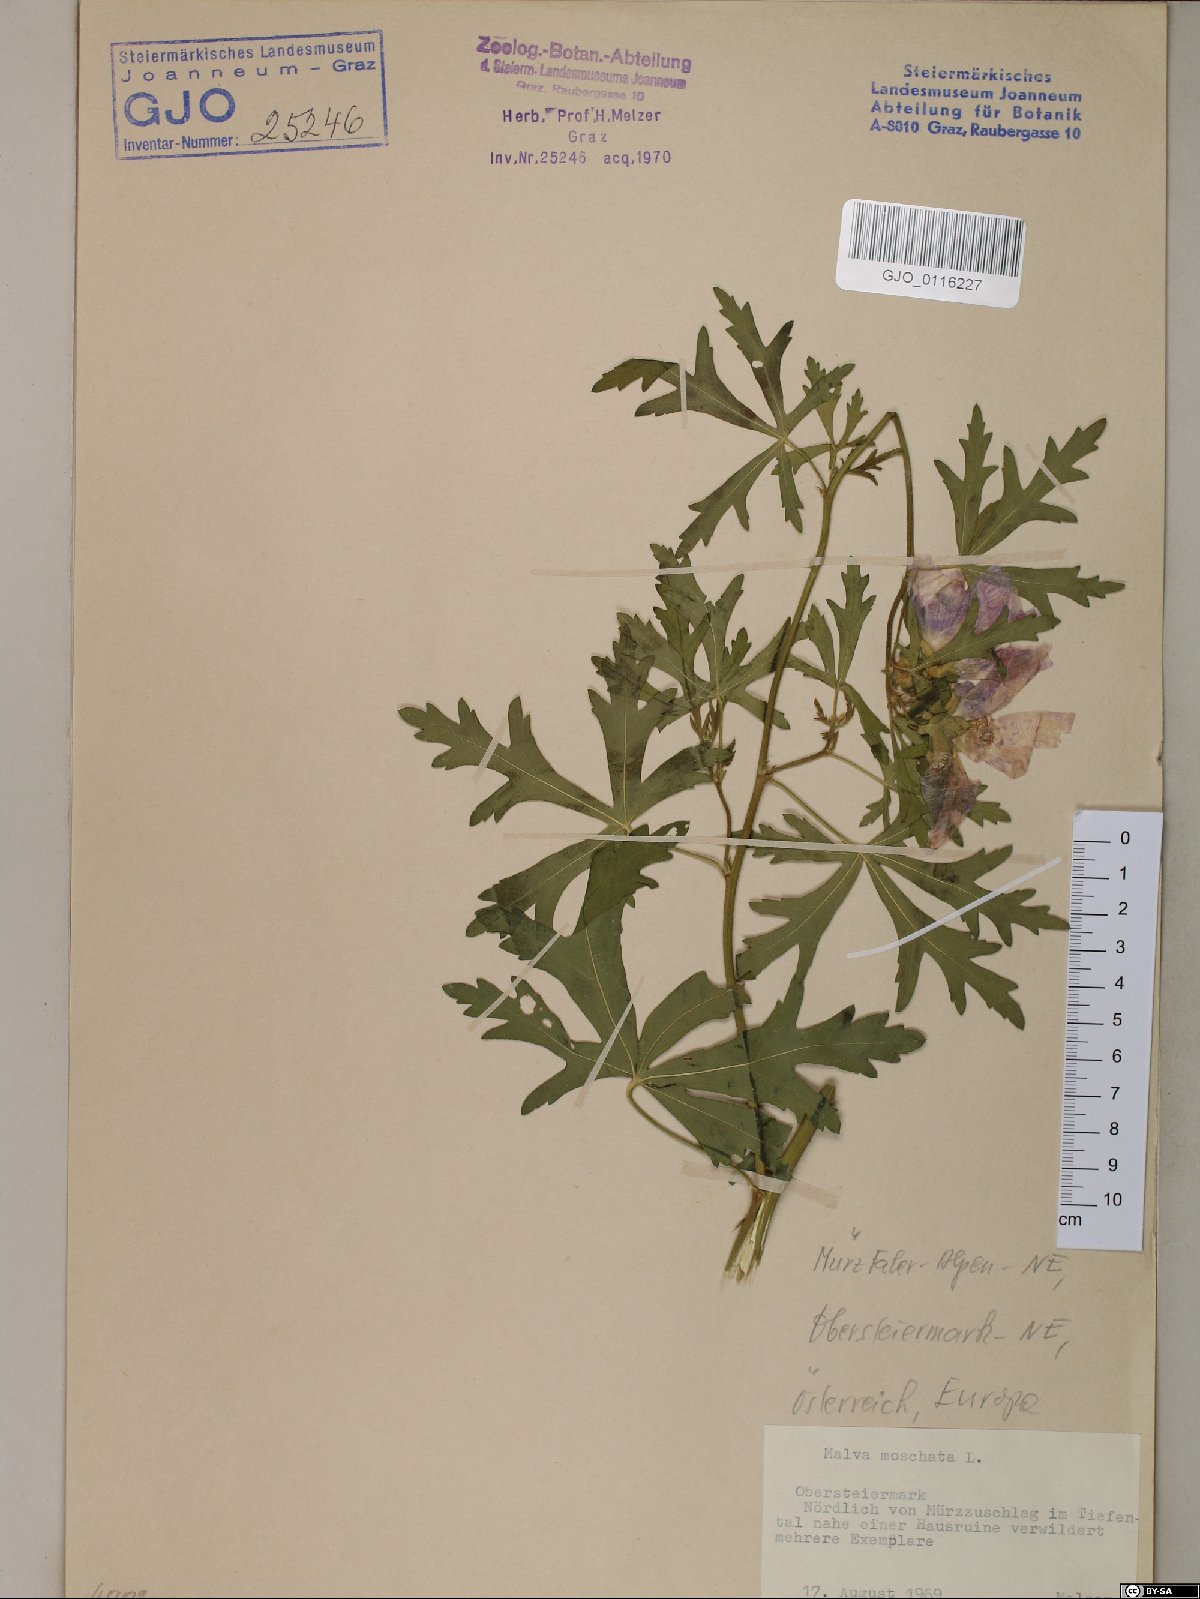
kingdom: Plantae
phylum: Tracheophyta
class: Magnoliopsida
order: Malvales
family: Malvaceae
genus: Malva
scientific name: Malva moschata
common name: Musk mallow
